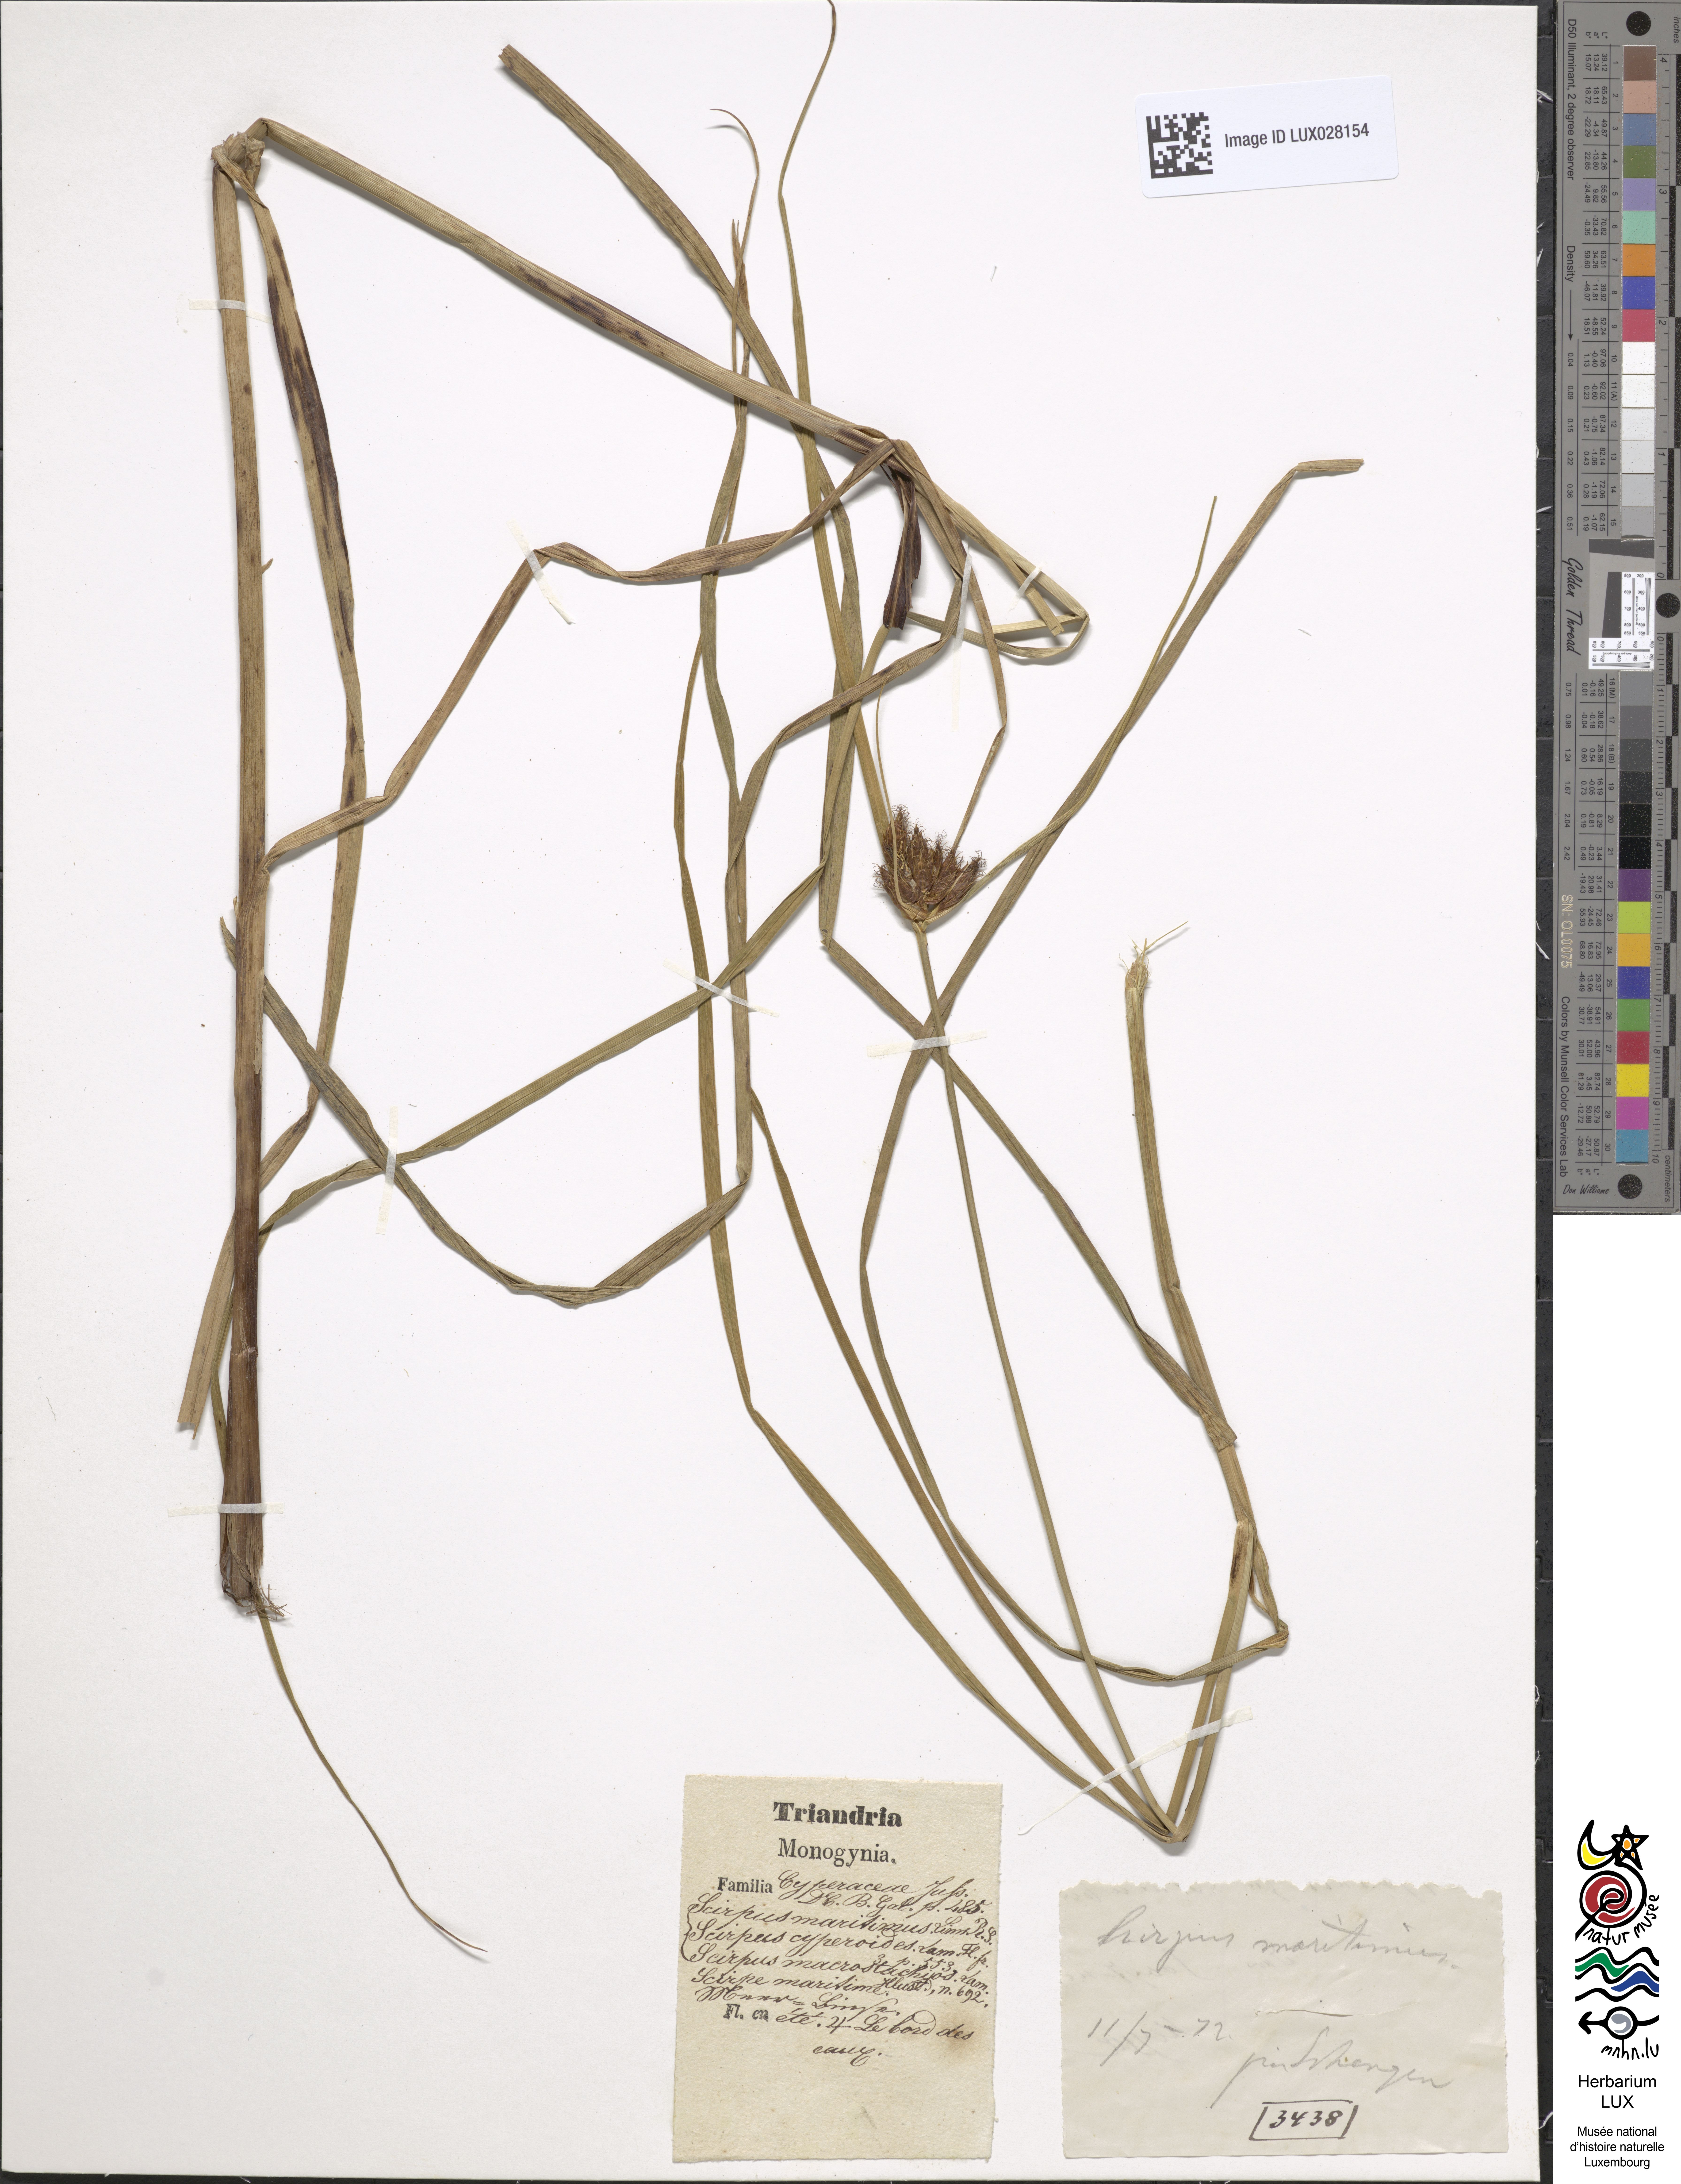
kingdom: Plantae
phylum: Tracheophyta
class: Liliopsida
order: Poales
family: Cyperaceae
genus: Bolboschoenus
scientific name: Bolboschoenus maritimus
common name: Sea club-rush
